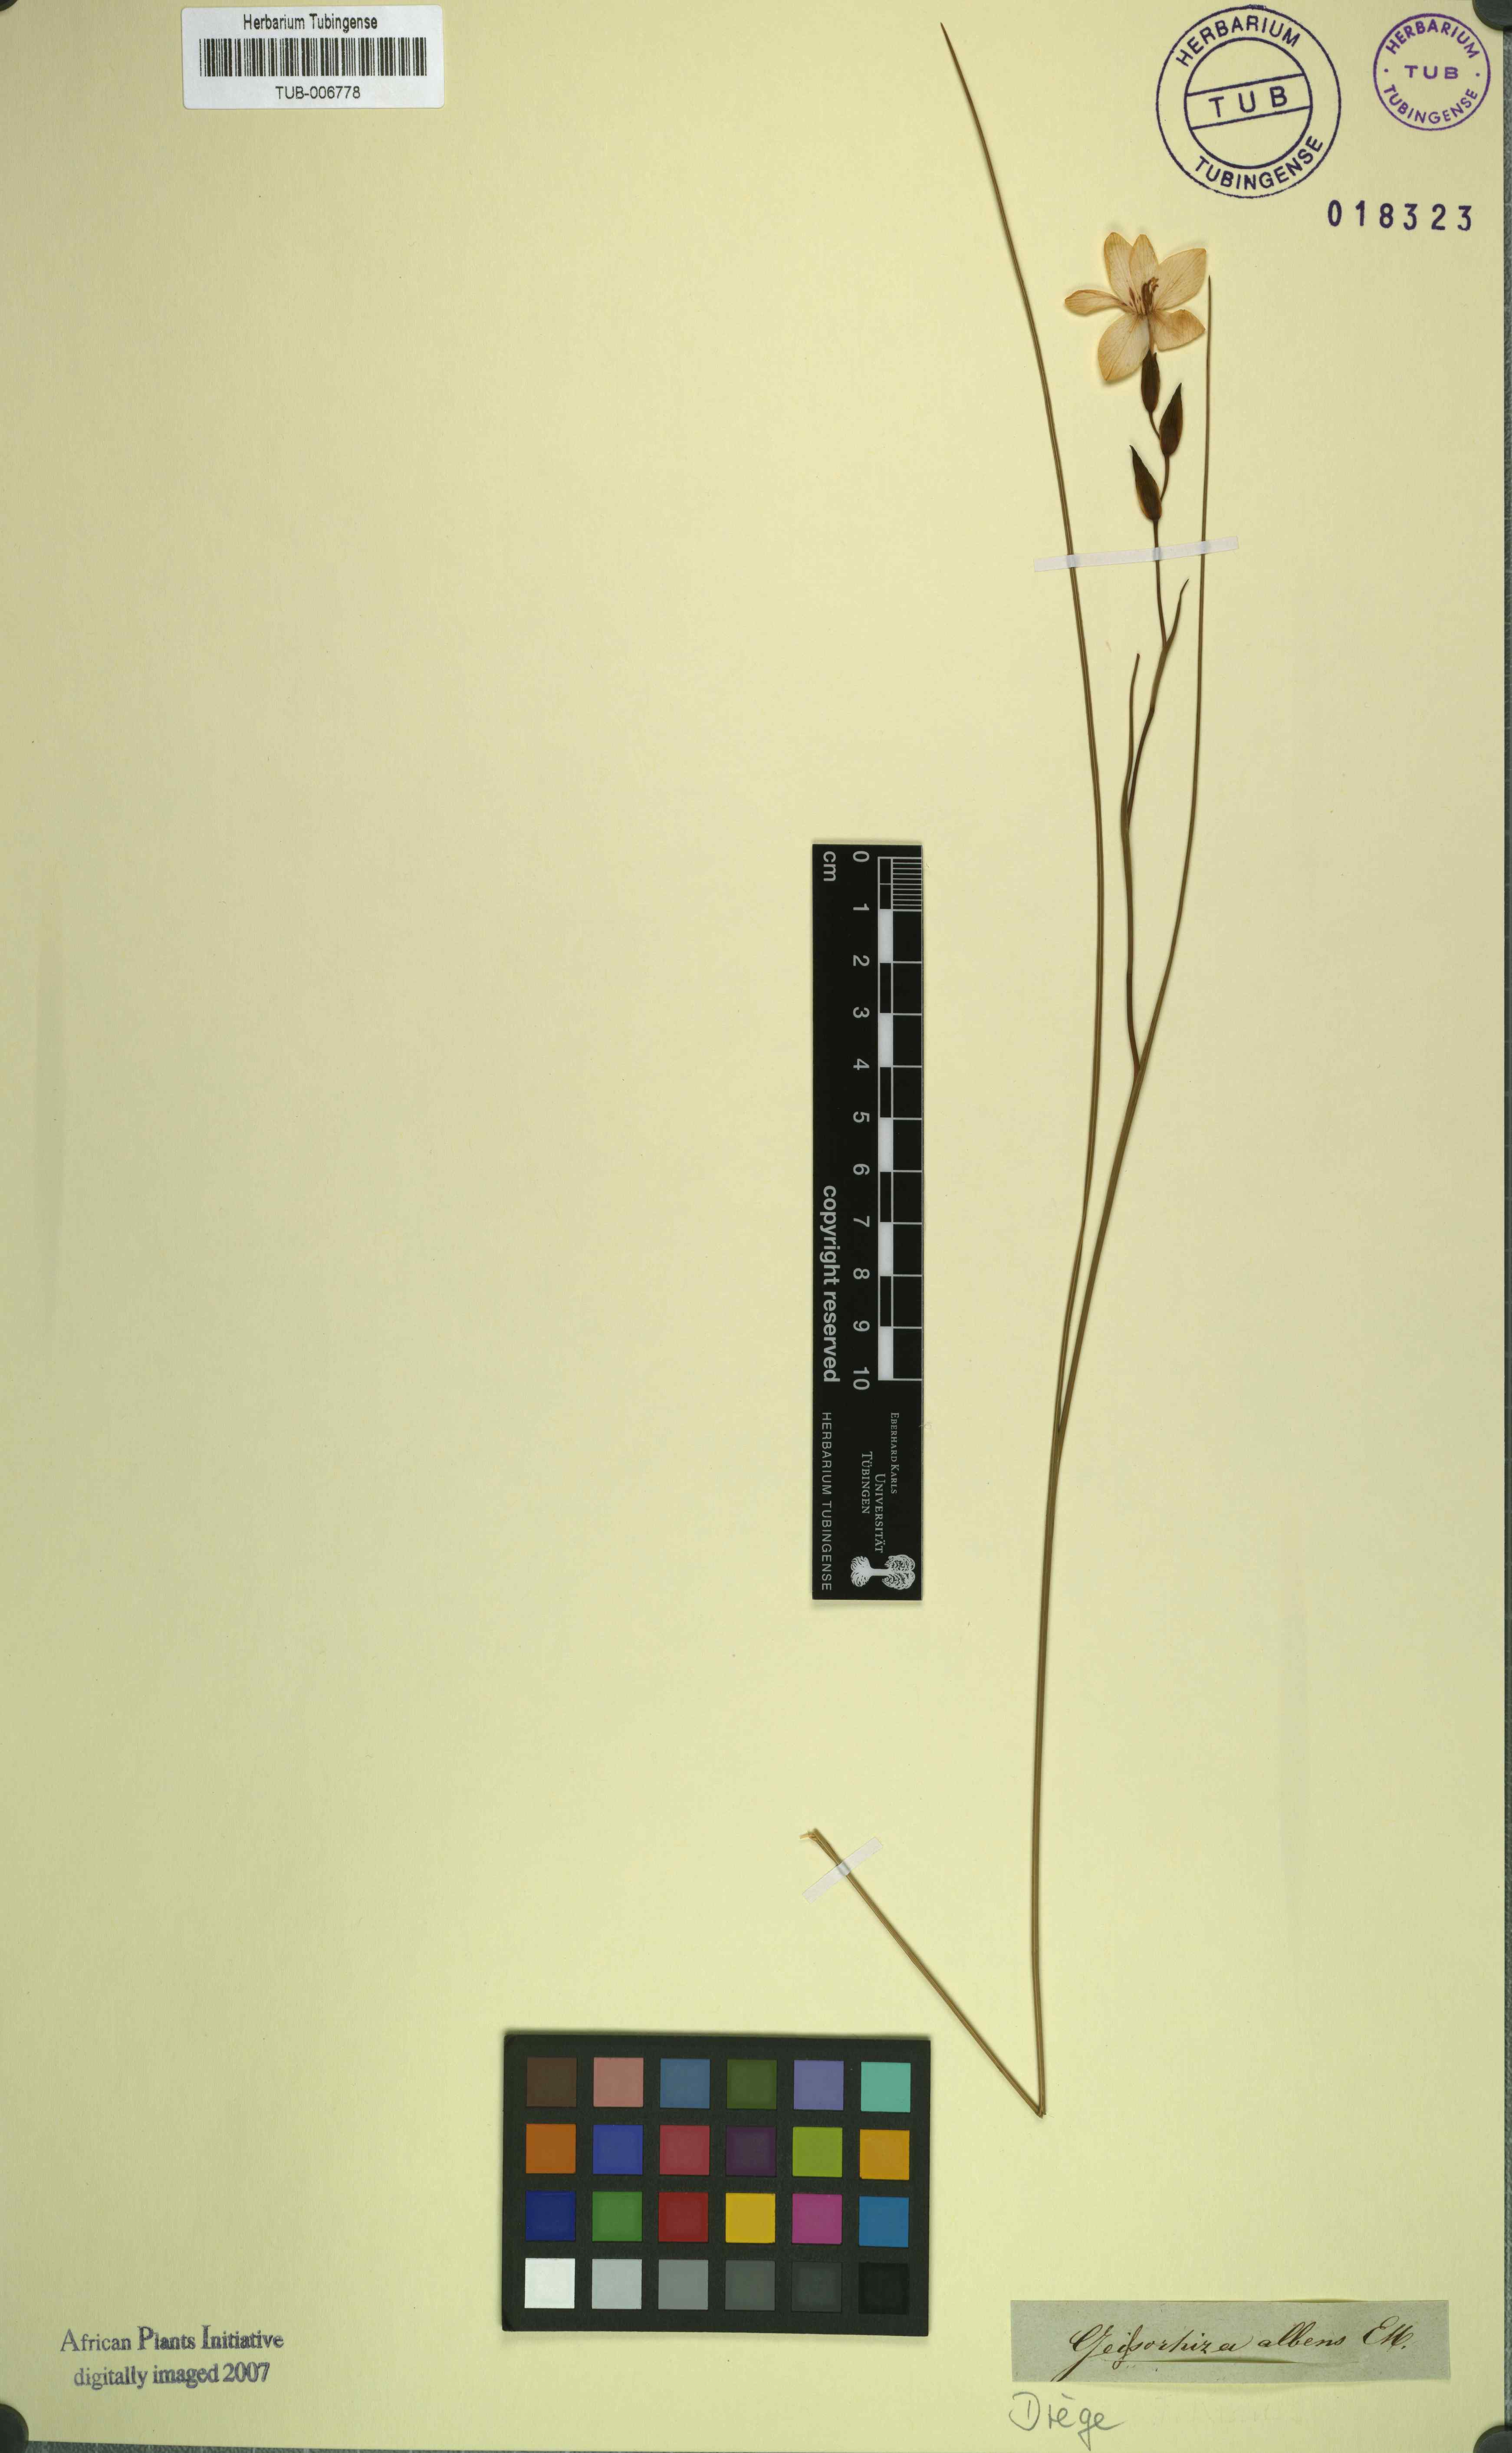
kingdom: Plantae
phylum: Tracheophyta
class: Liliopsida
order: Asparagales
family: Iridaceae
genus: Gladiolus
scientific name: Gladiolus debilis
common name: Painted-lady
